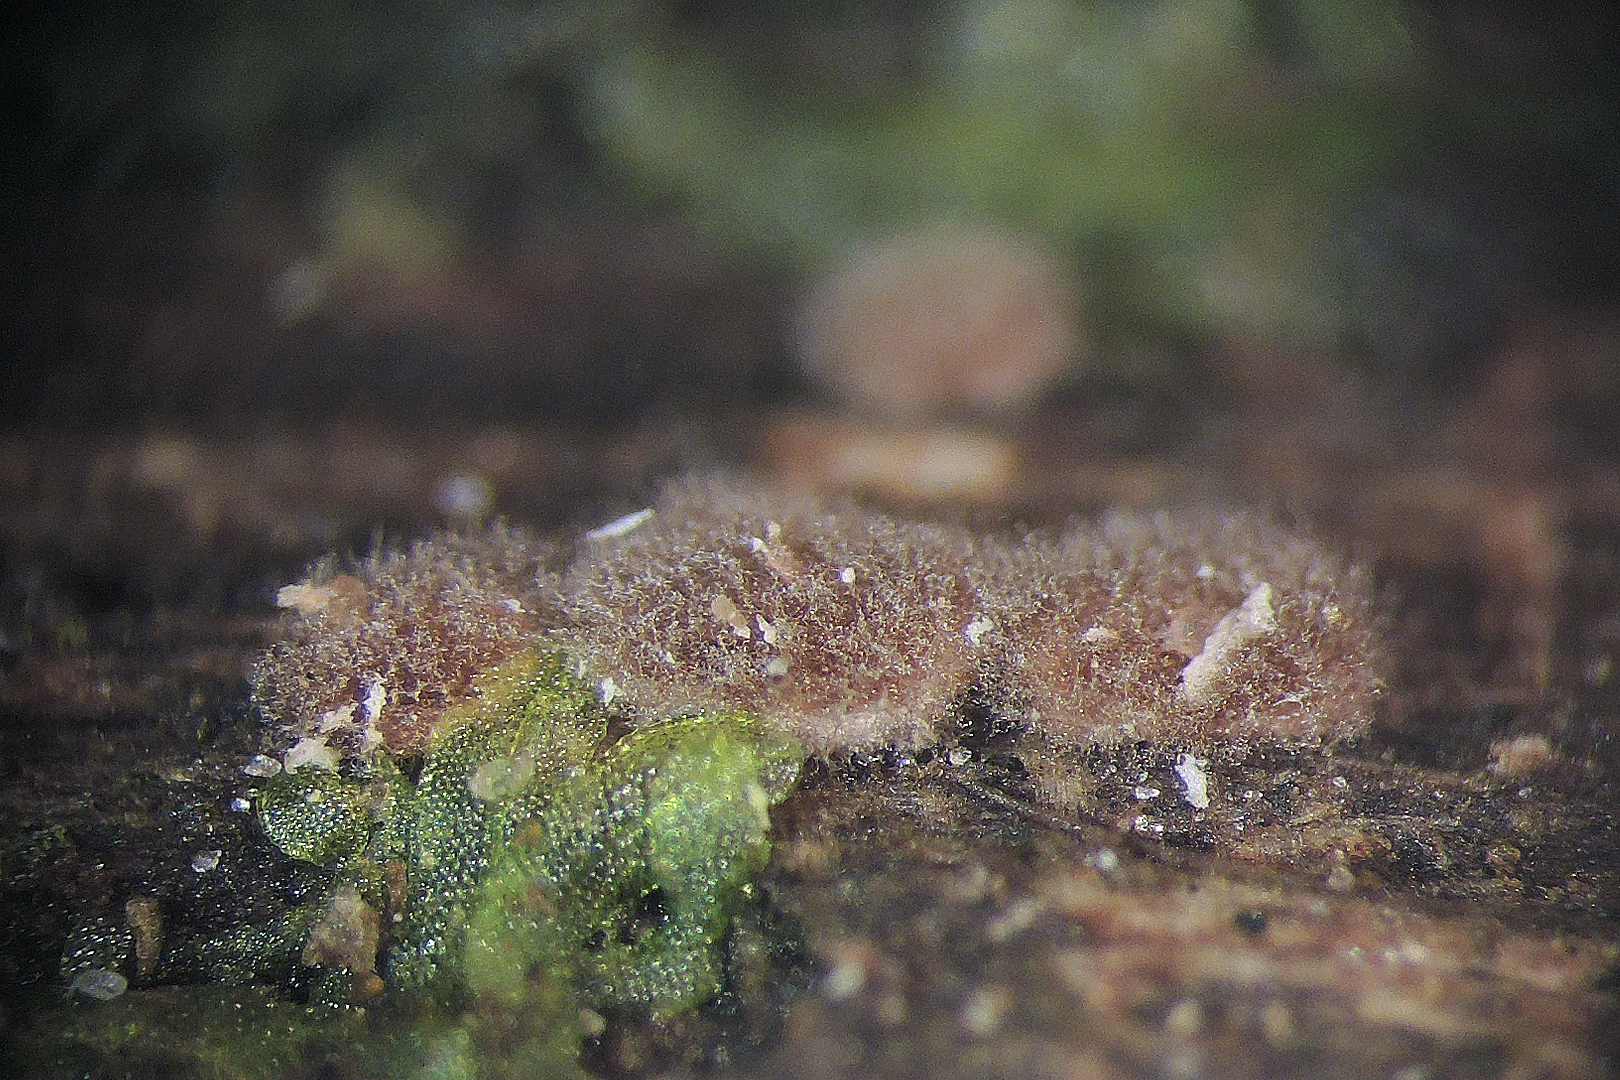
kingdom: Fungi
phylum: Ascomycota
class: Sordariomycetes
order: Hypocreales
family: Nectriaceae
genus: Sarcopodium
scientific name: Sarcopodium tortuosum
